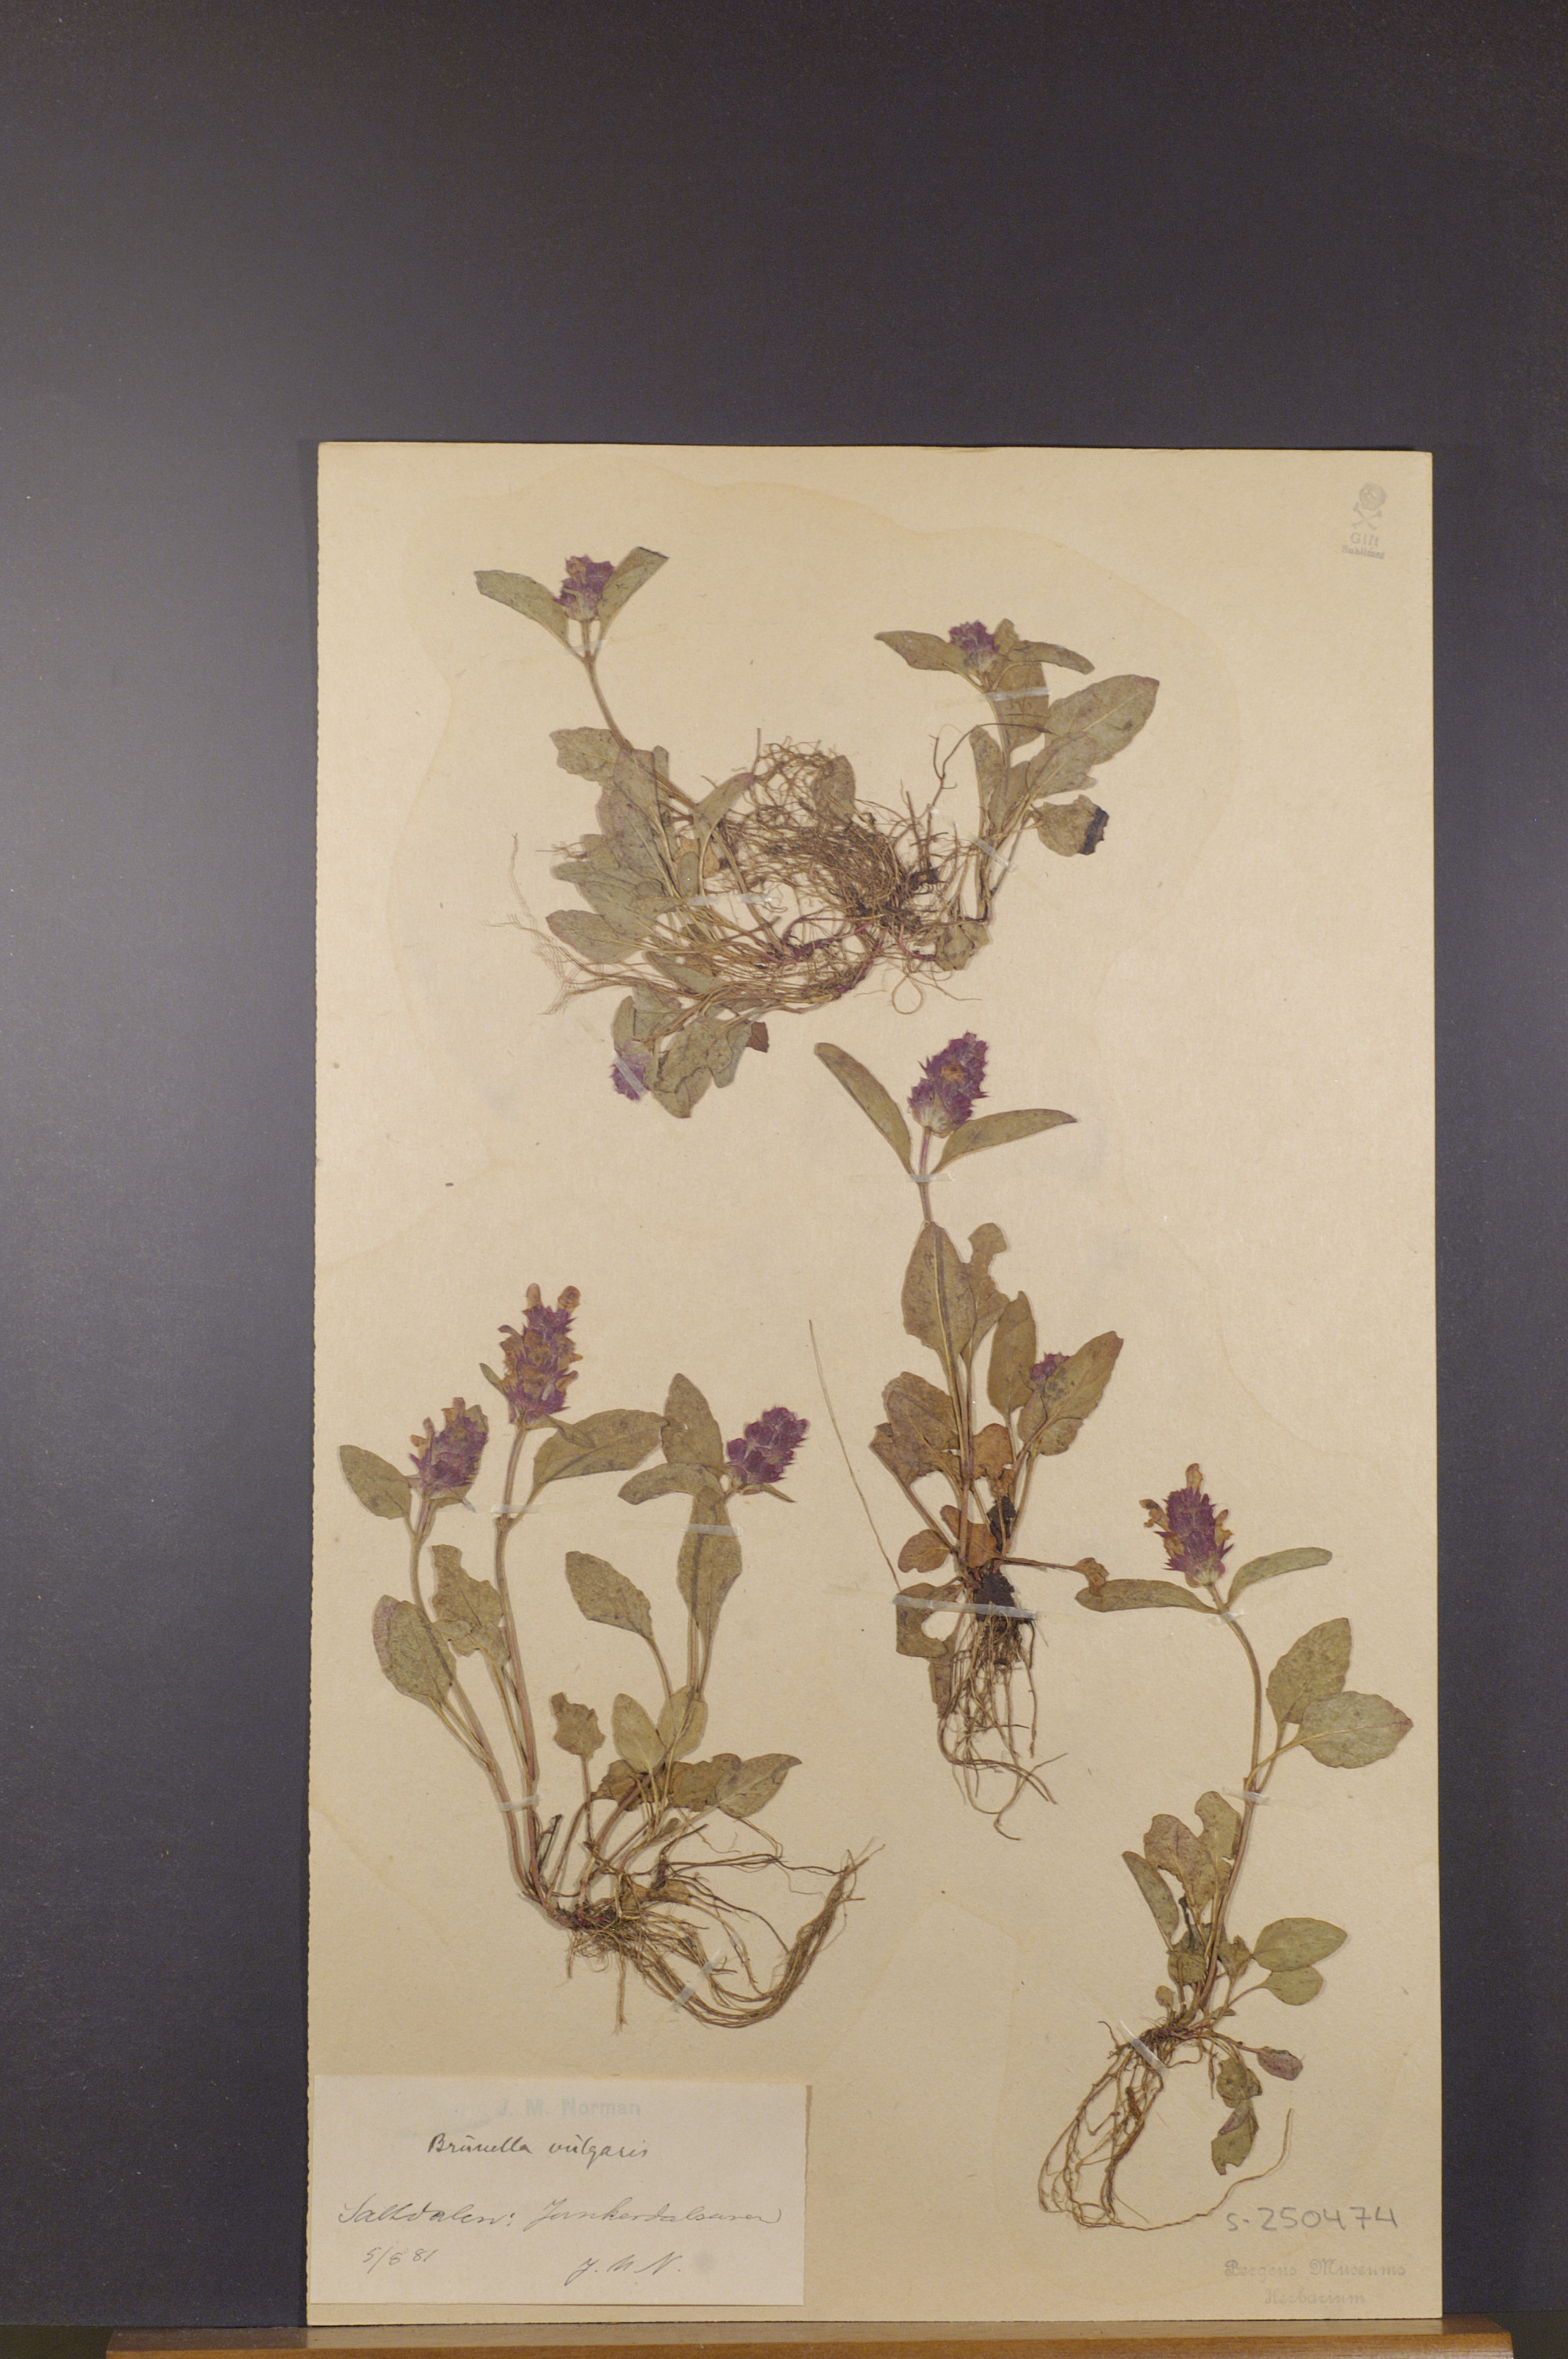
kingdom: Plantae
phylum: Tracheophyta
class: Magnoliopsida
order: Lamiales
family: Lamiaceae
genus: Prunella
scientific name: Prunella vulgaris
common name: Heal-all
